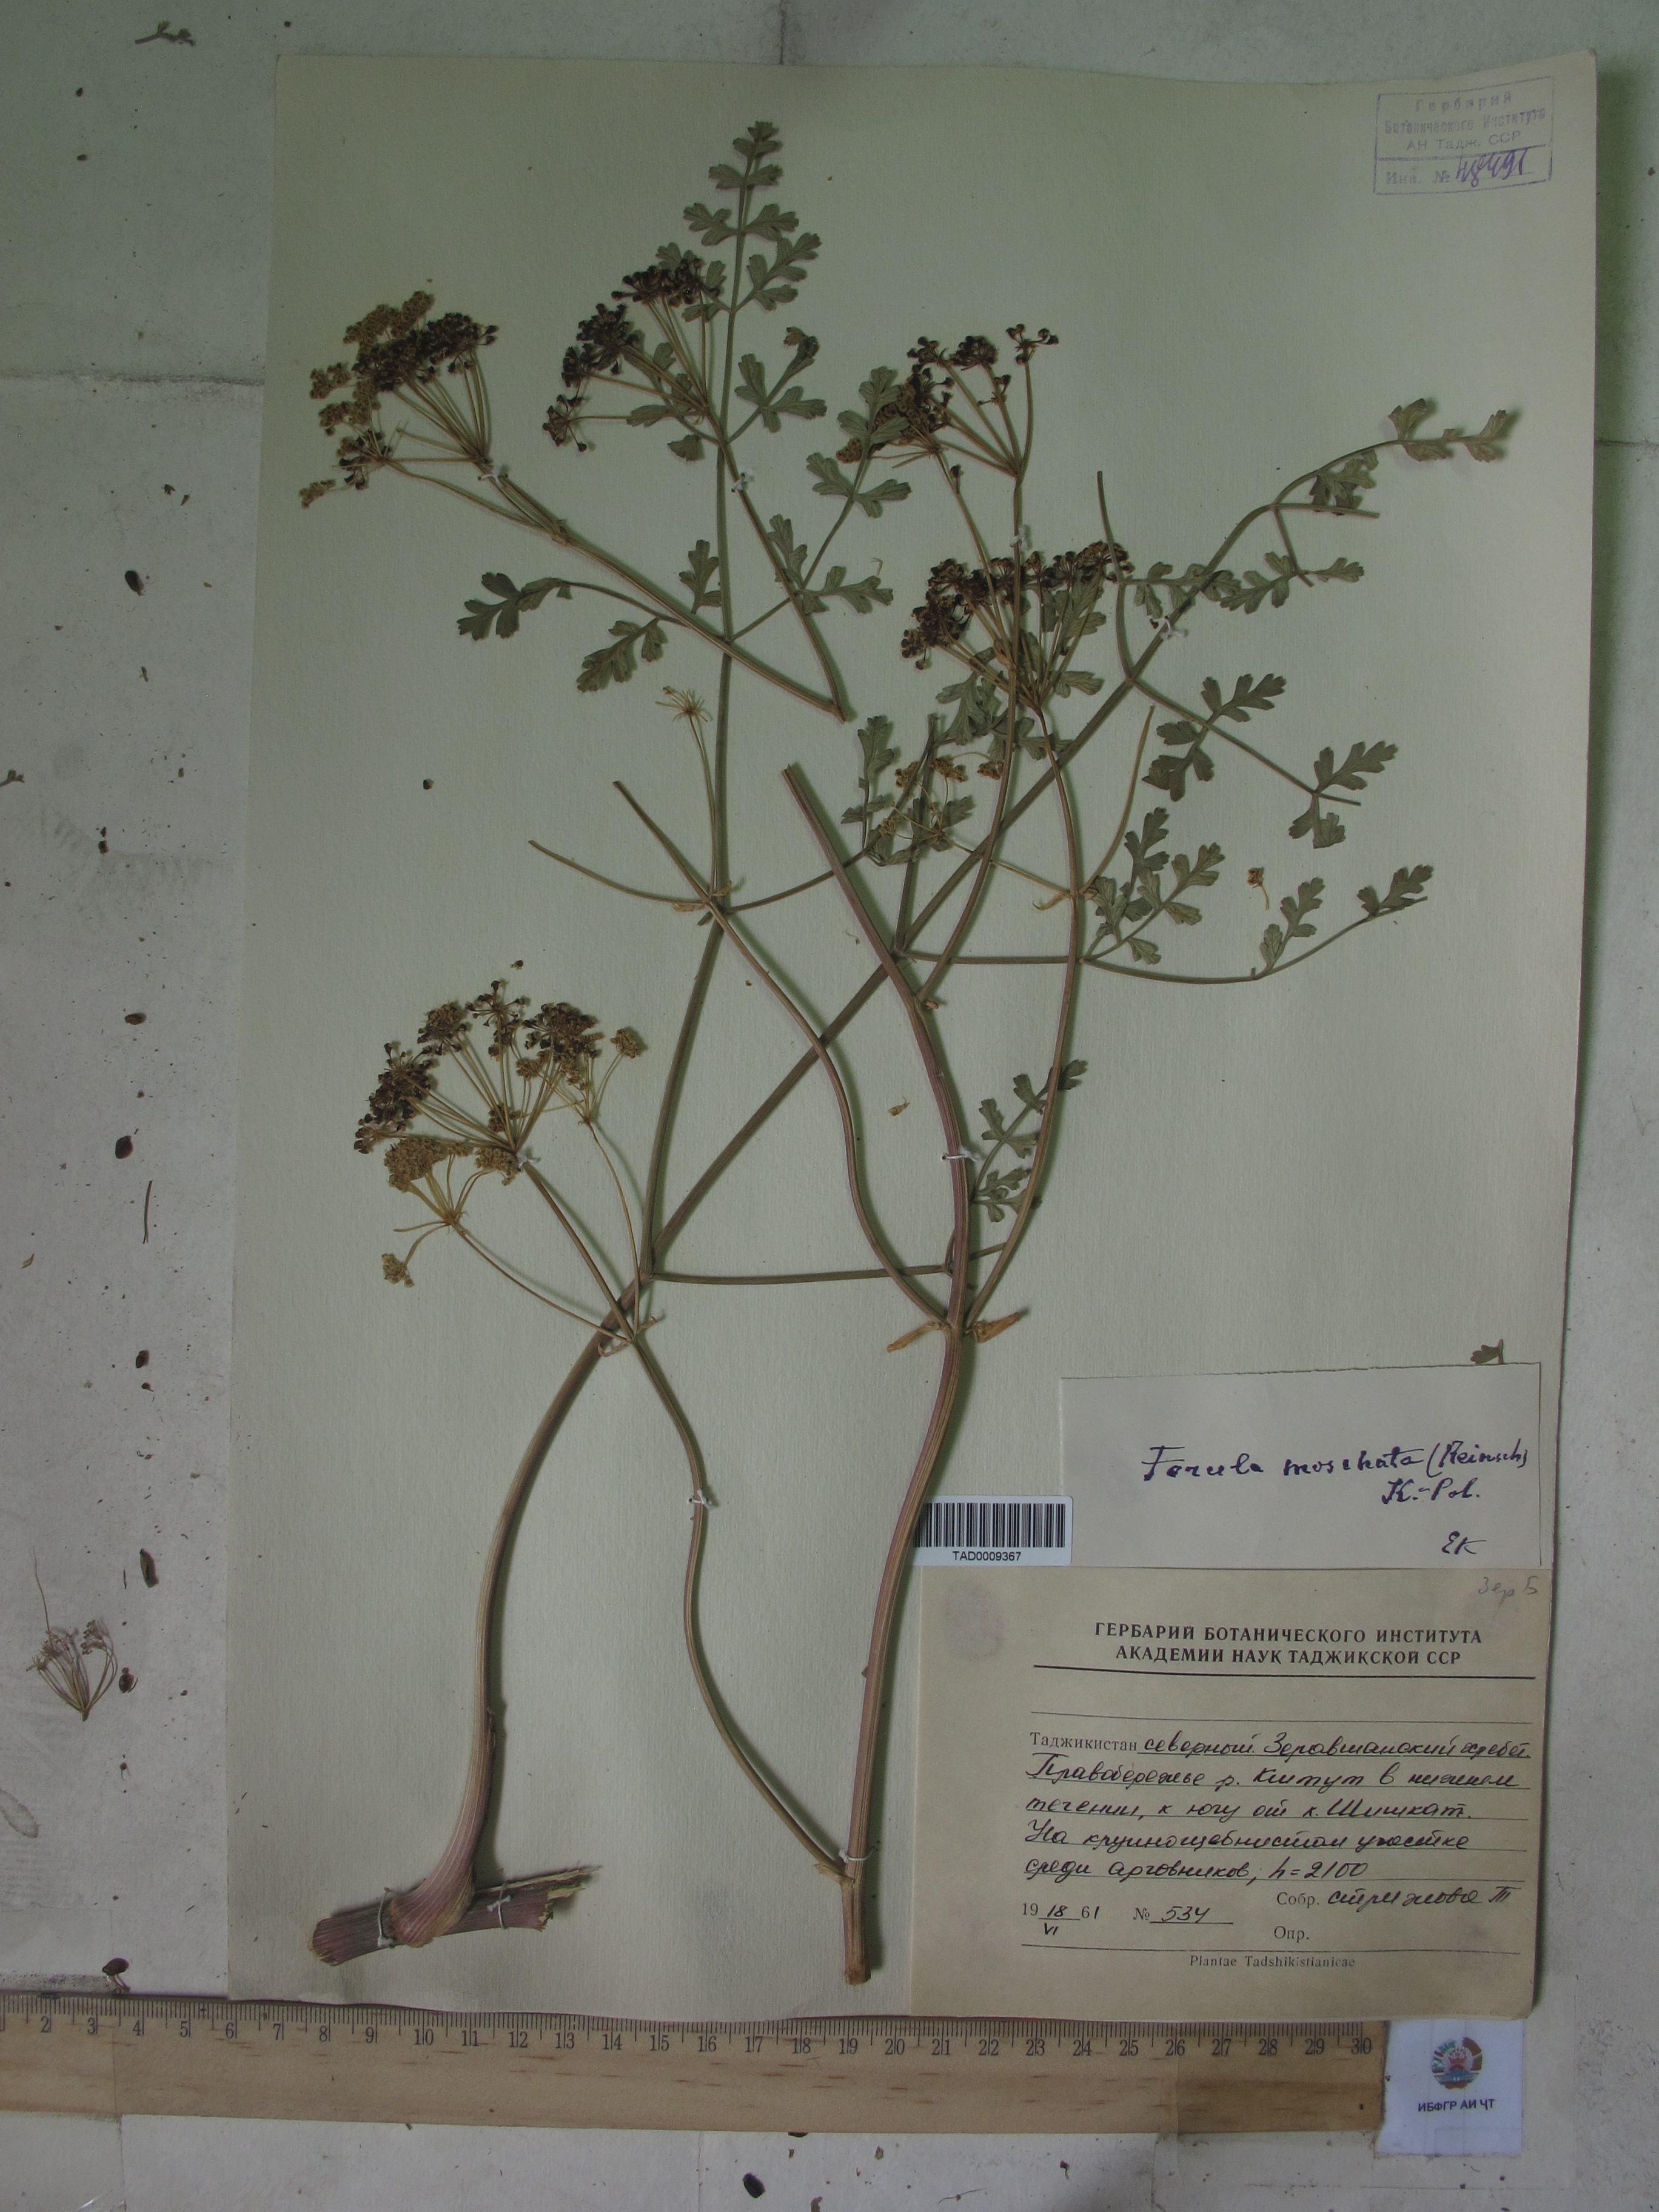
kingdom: Plantae
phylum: Tracheophyta
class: Magnoliopsida
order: Apiales
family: Apiaceae
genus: Ferula
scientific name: Ferula moschata
